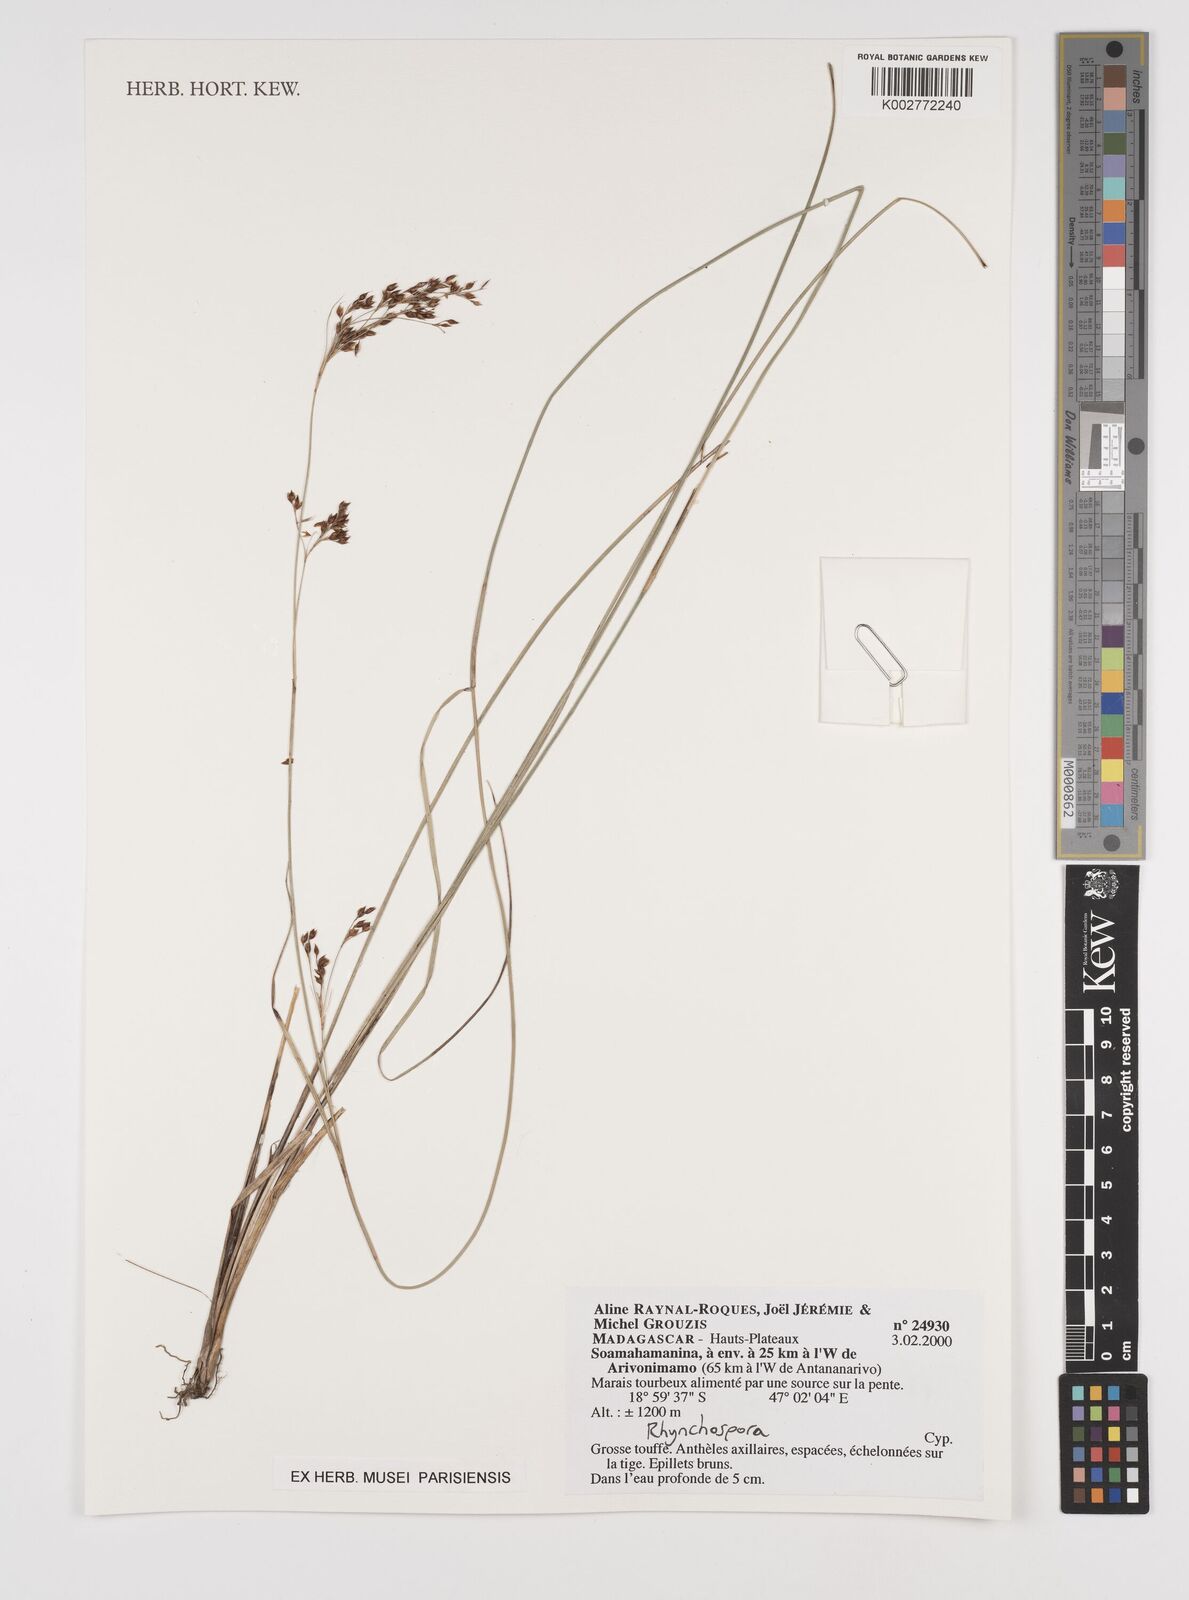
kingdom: Plantae
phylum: Tracheophyta
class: Liliopsida
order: Poales
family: Cyperaceae
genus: Rhynchospora
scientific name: Rhynchospora
